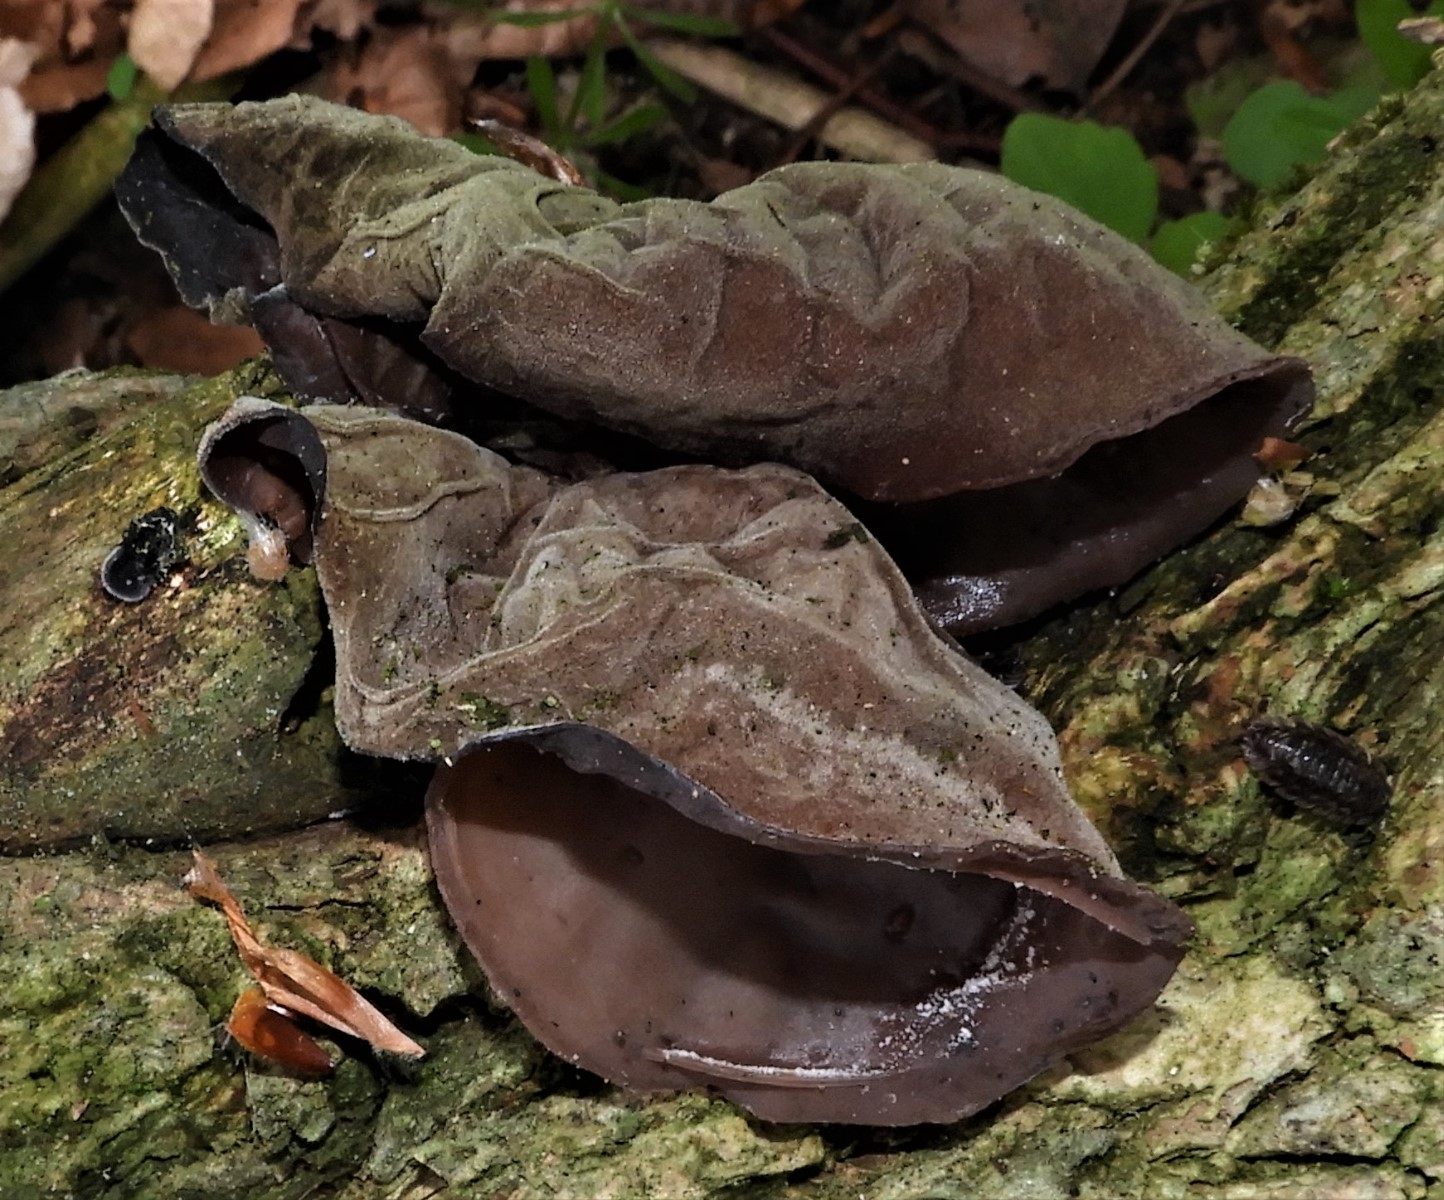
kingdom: Fungi
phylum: Basidiomycota
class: Agaricomycetes
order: Auriculariales
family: Auriculariaceae
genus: Auricularia
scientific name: Auricularia auricula-judae
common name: almindelig judasøre
